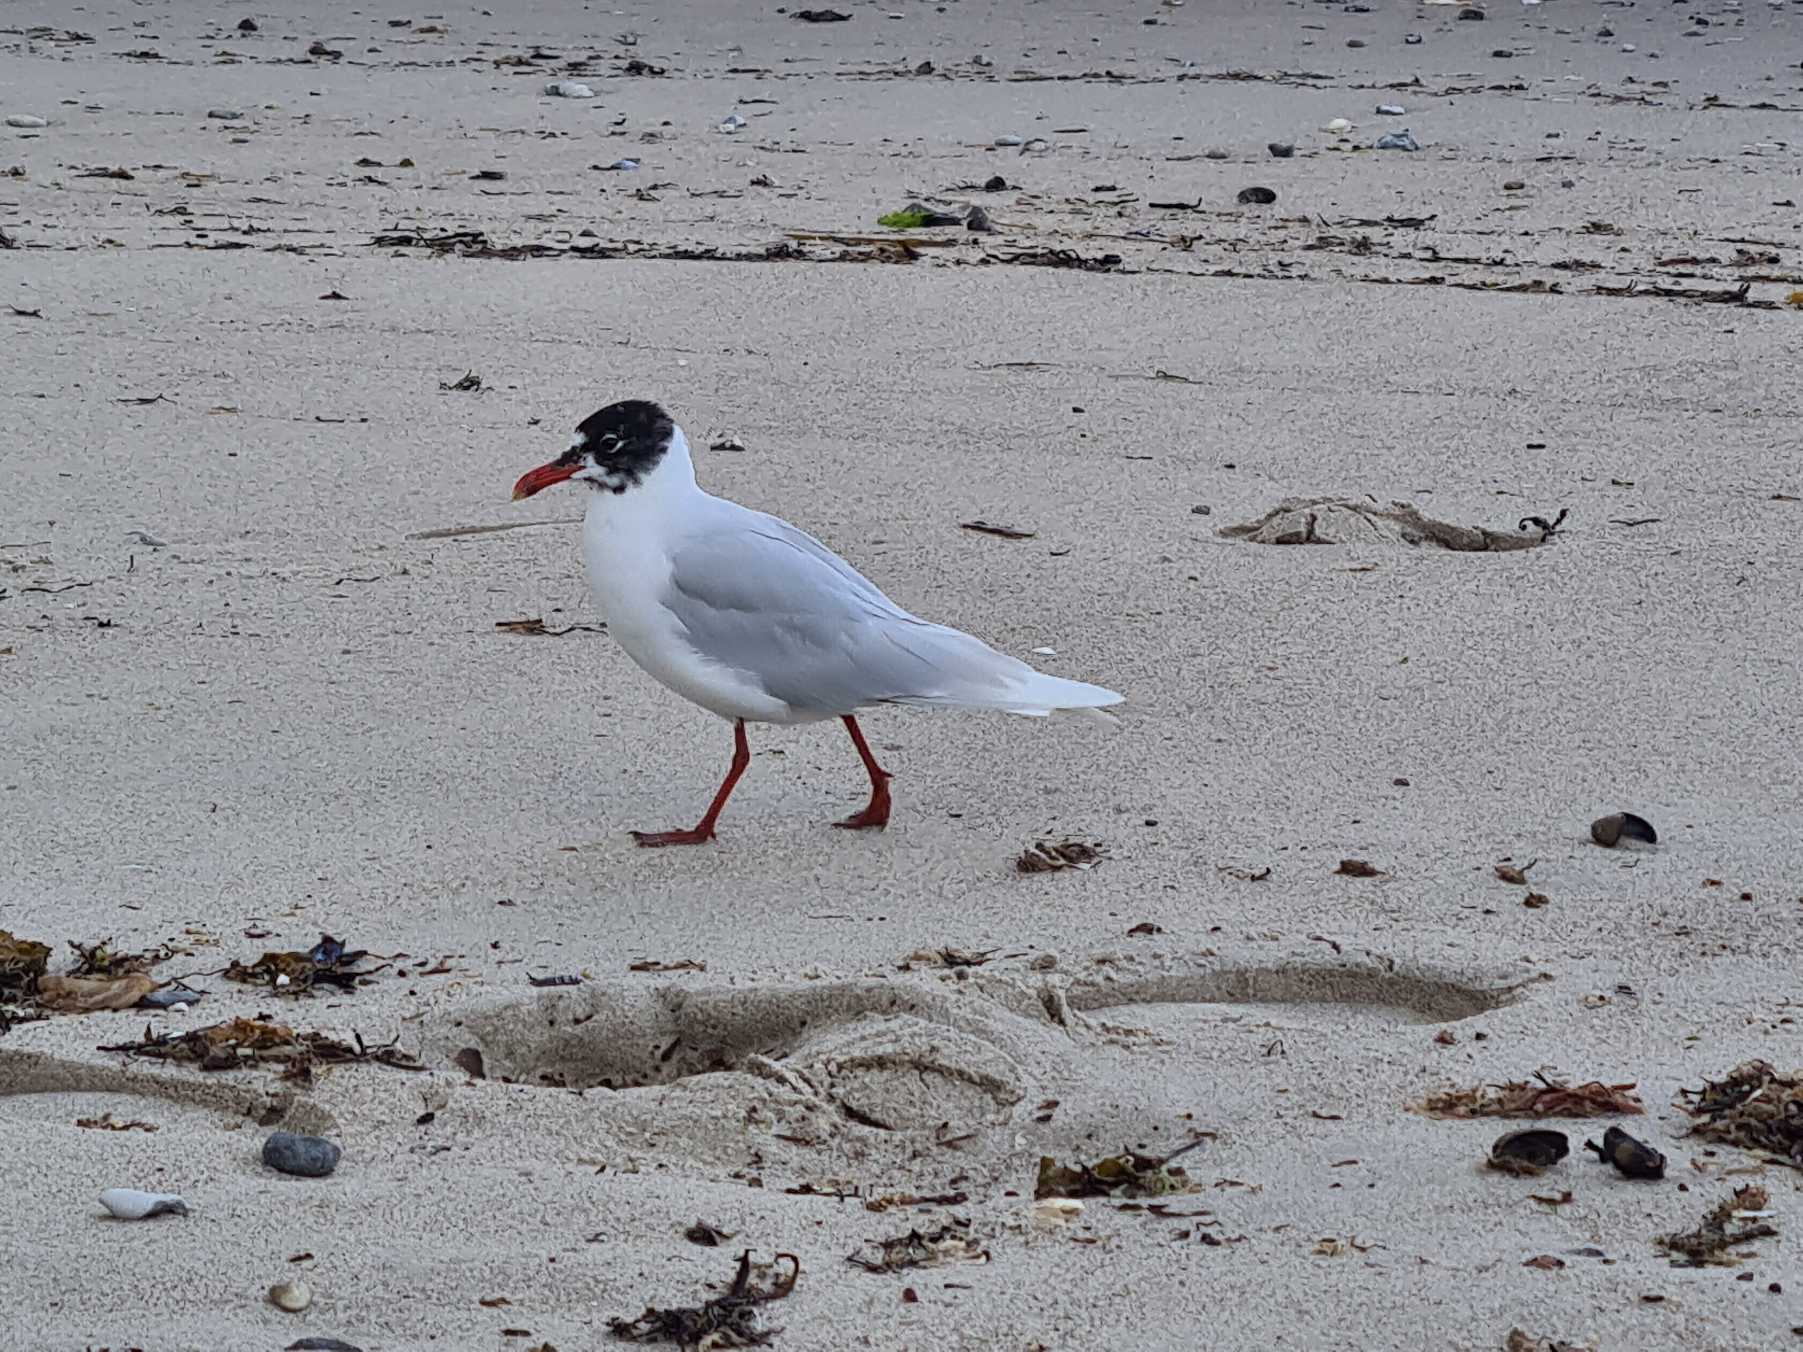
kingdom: Animalia
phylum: Chordata
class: Aves
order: Charadriiformes
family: Laridae
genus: Ichthyaetus
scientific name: Ichthyaetus melanocephalus
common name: Sorthovedet måge
